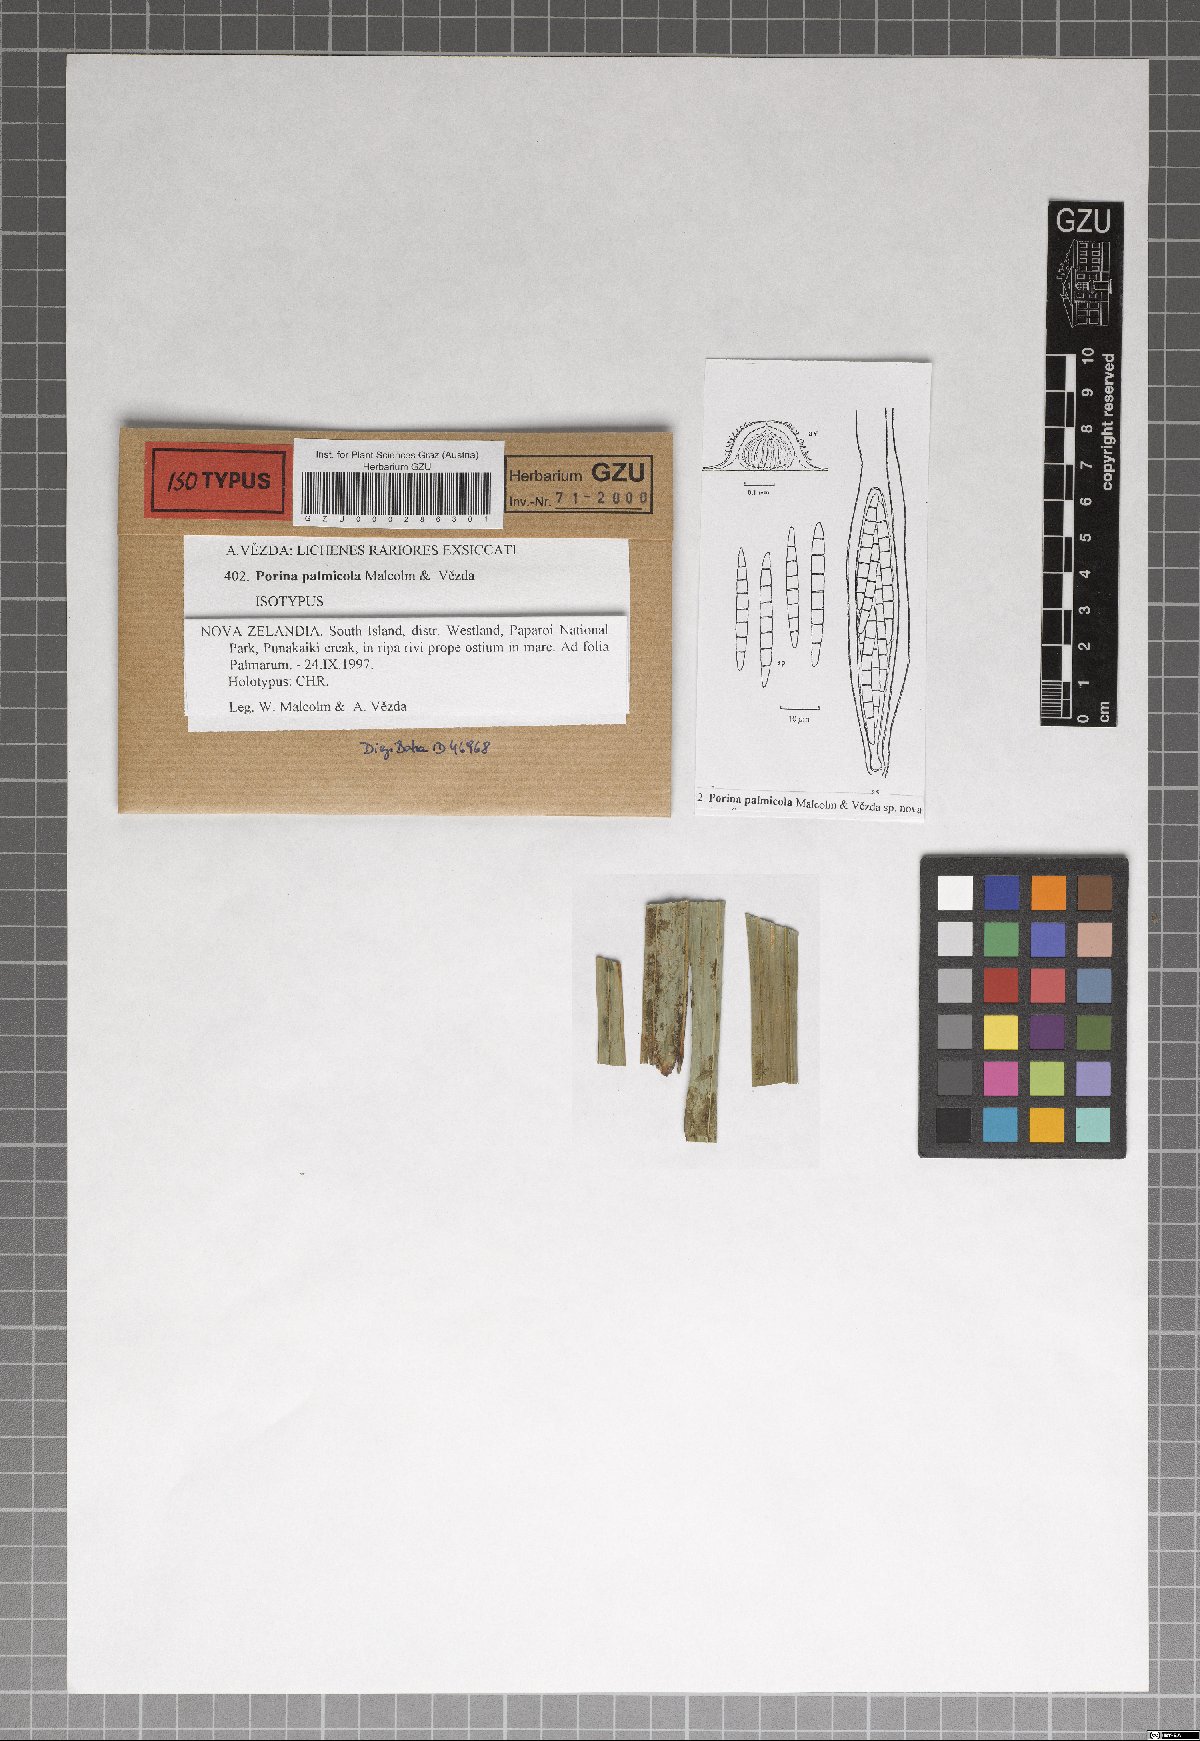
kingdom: Fungi
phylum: Ascomycota
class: Lecanoromycetes
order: Pertusariales
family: Pertusariaceae
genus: Porina
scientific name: Porina palmicola
